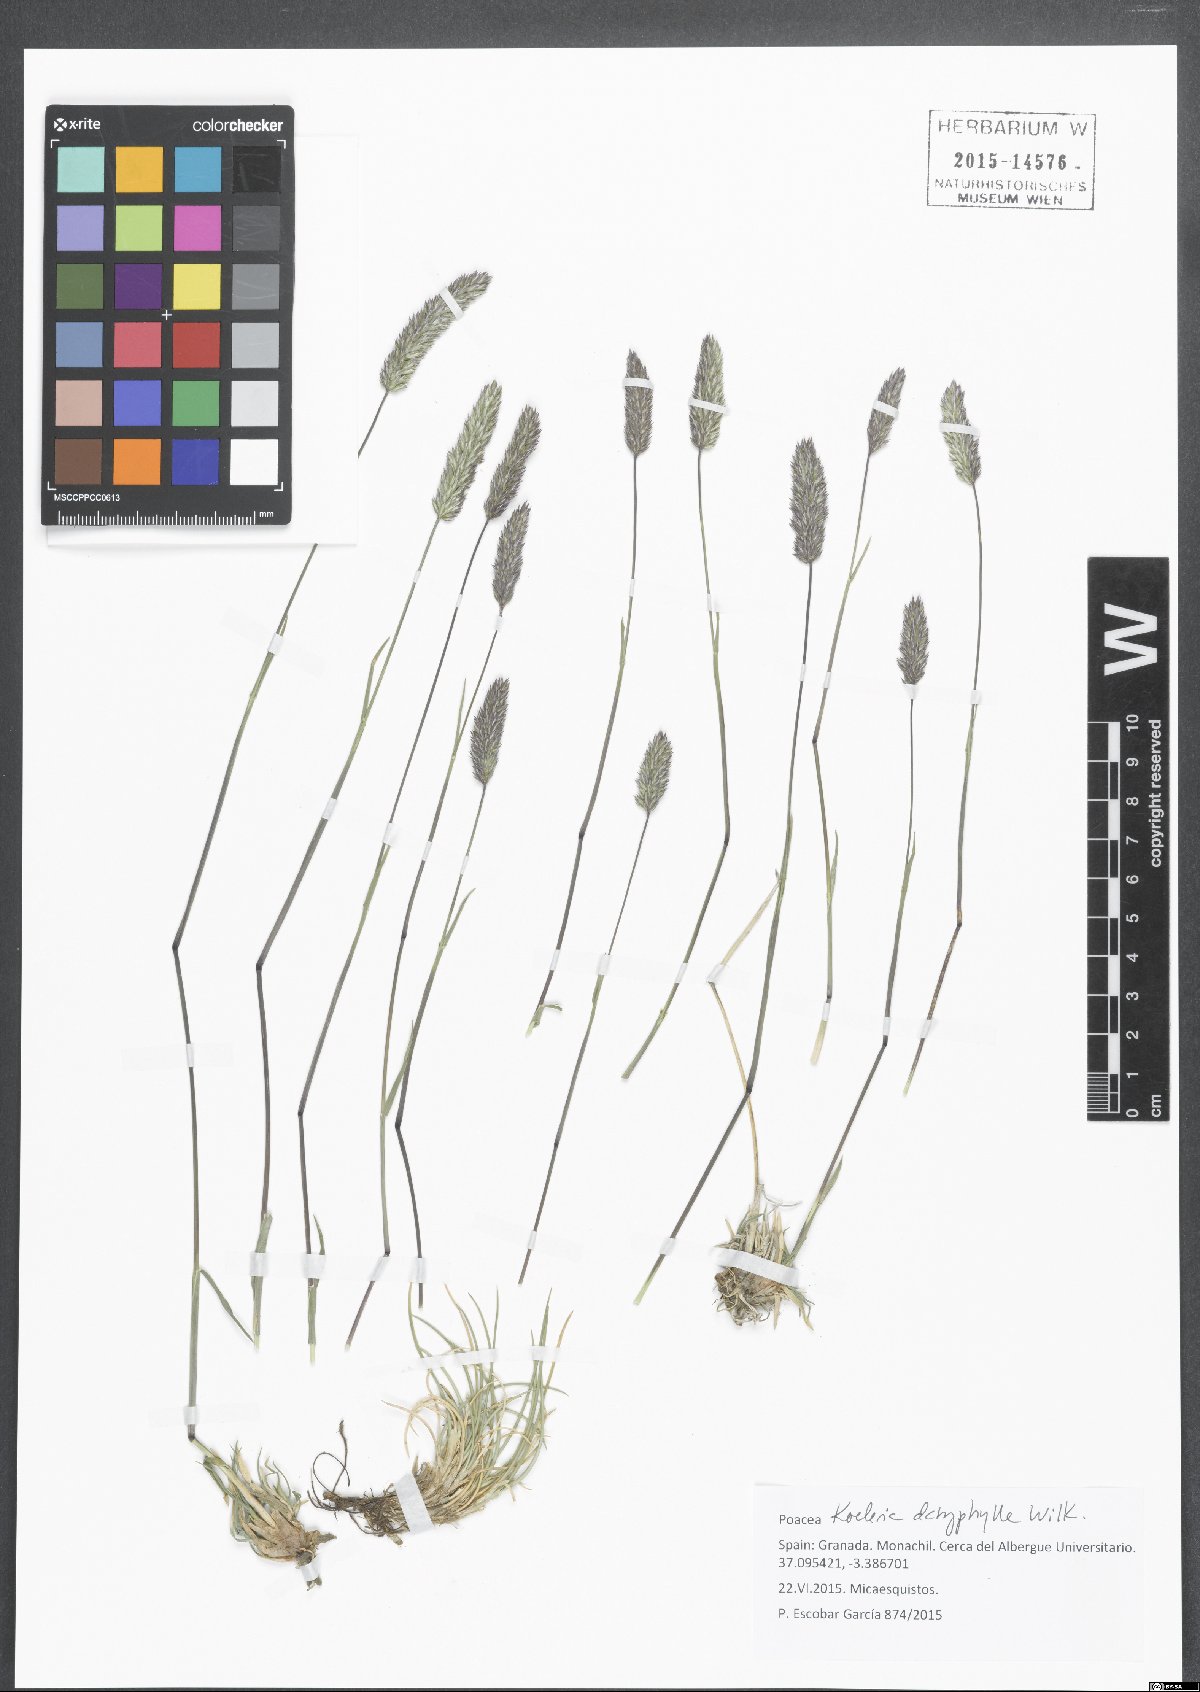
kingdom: Plantae
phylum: Tracheophyta
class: Liliopsida
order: Poales
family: Poaceae
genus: Koeleria
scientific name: Koeleria splendens
